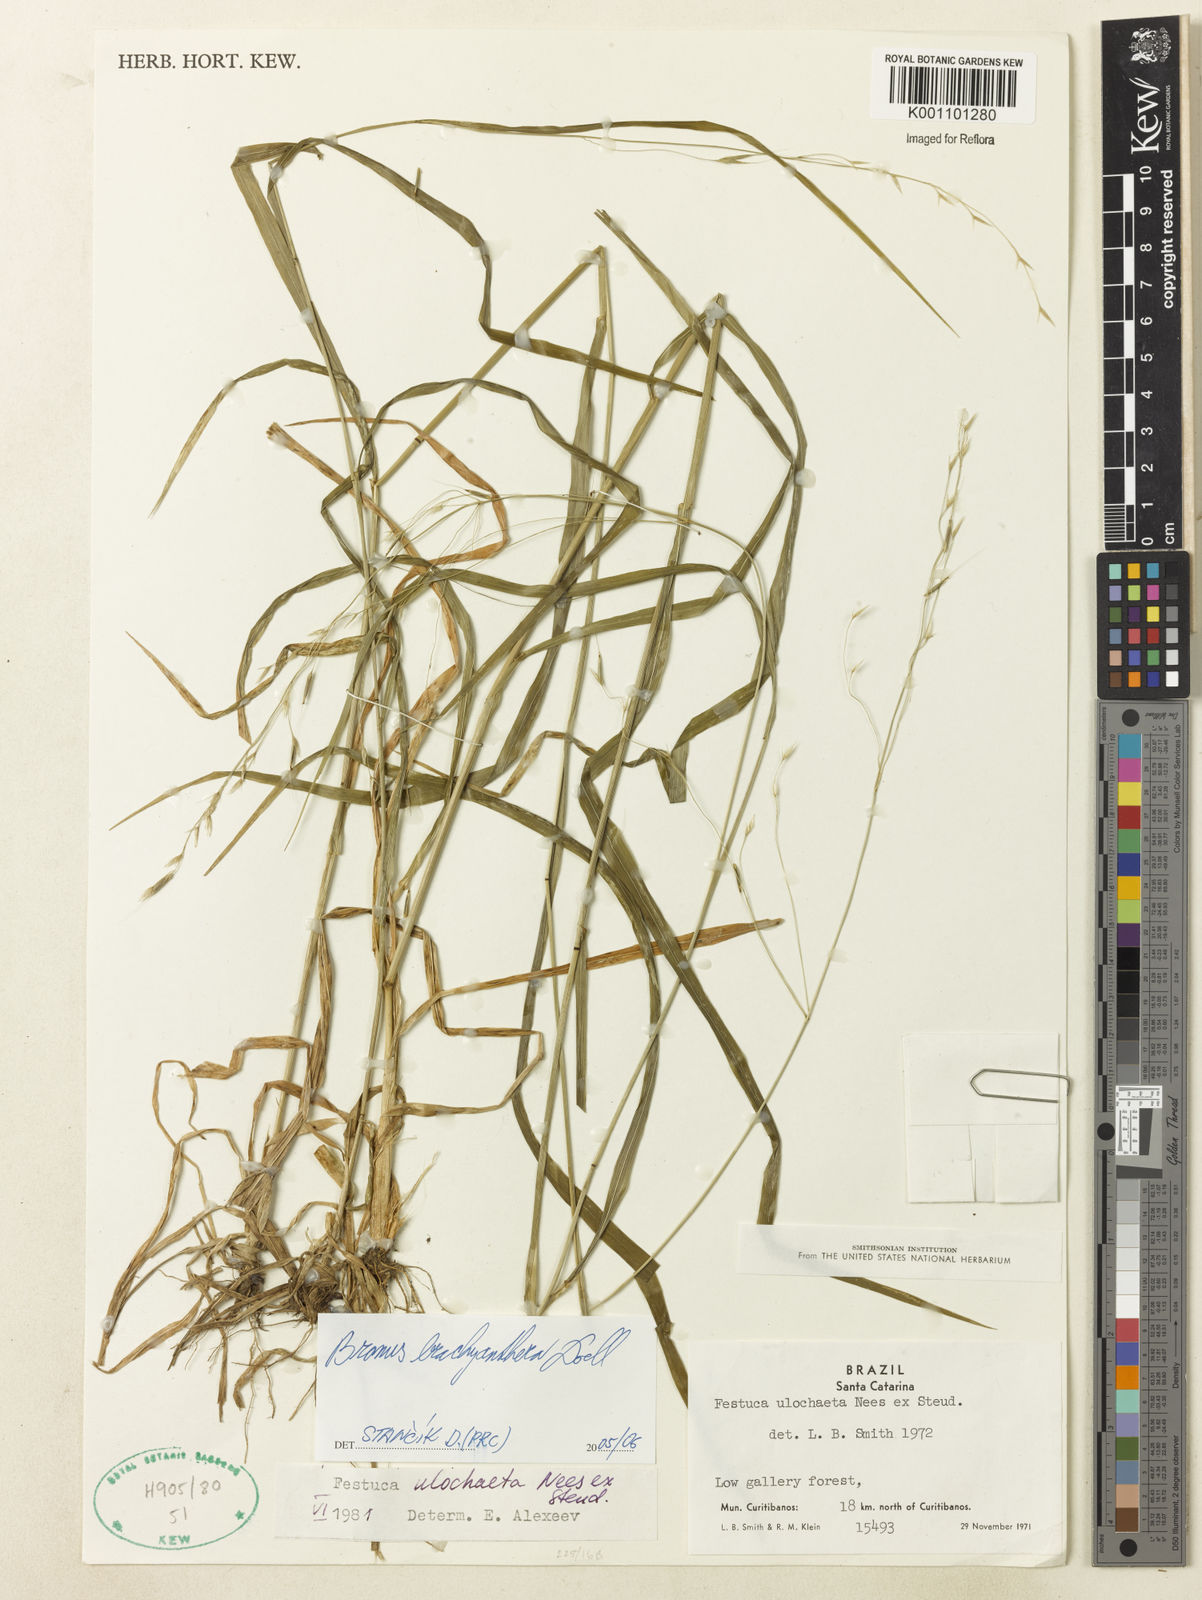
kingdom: Plantae
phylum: Tracheophyta
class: Liliopsida
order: Poales
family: Poaceae
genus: Bromus
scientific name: Bromus
